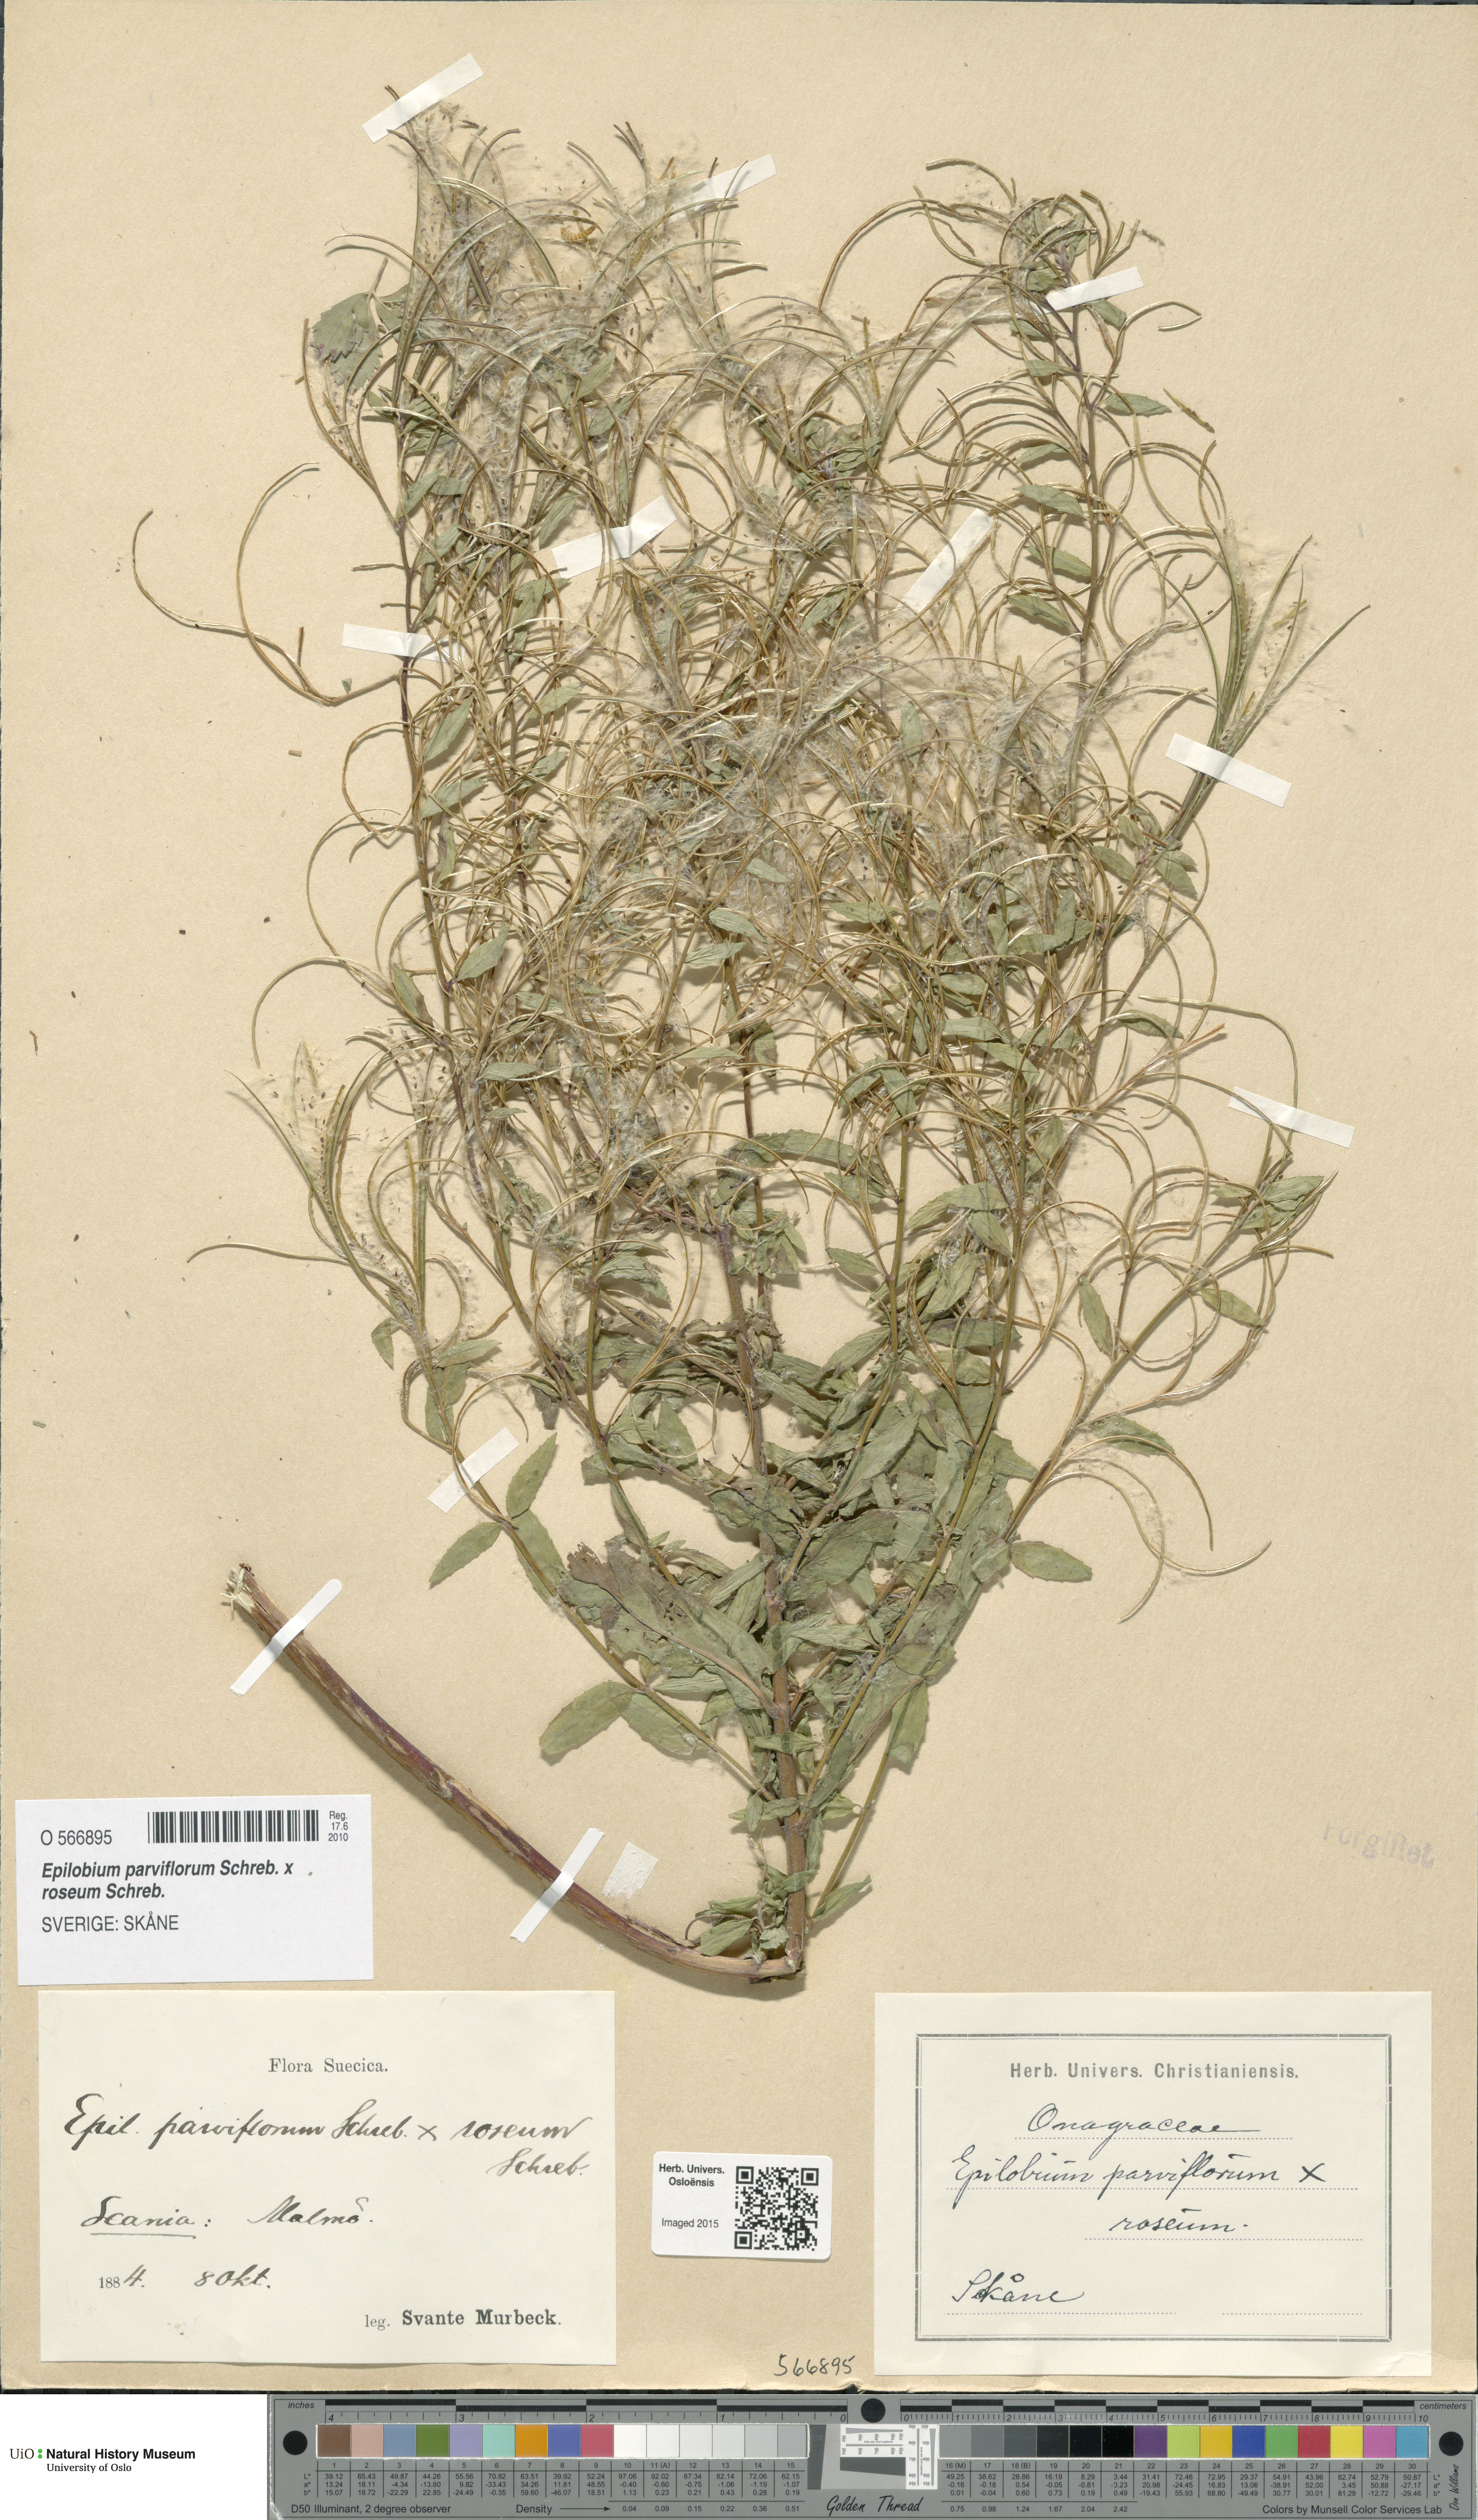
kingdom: Plantae
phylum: Tracheophyta
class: Magnoliopsida
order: Myrtales
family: Onagraceae
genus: Epilobium
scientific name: Epilobium
